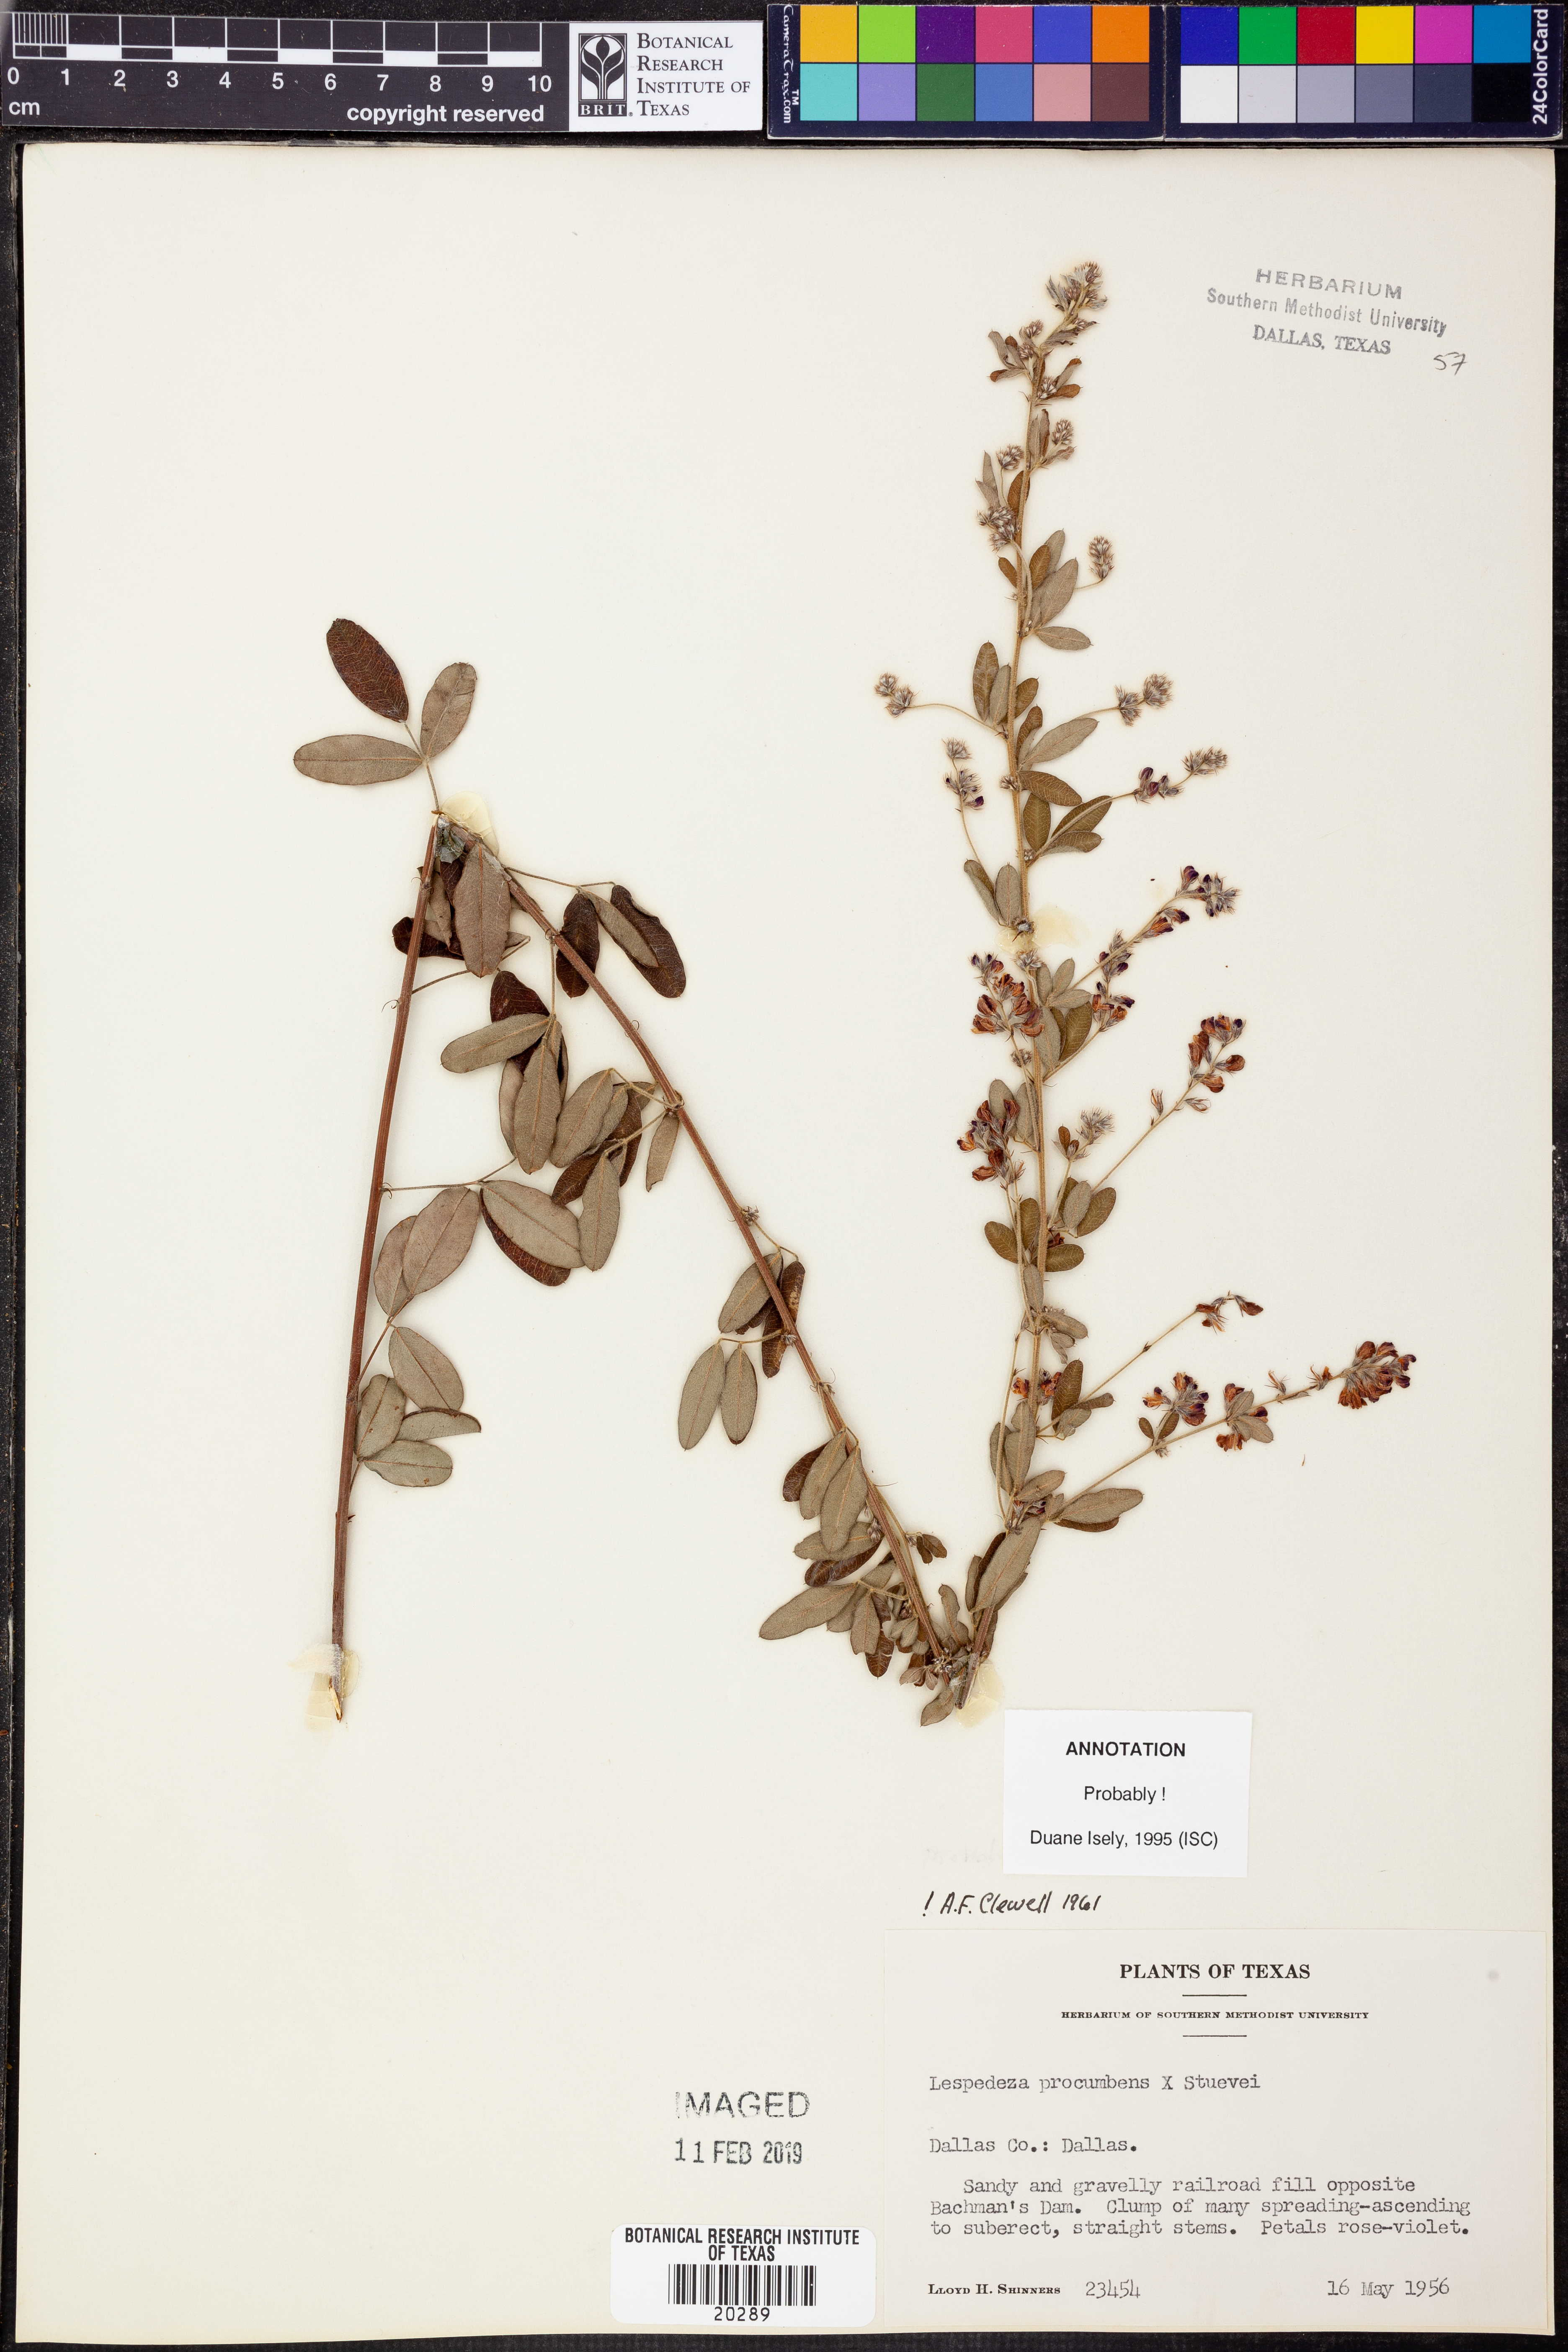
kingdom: Plantae
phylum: Tracheophyta
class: Magnoliopsida
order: Fabales
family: Fabaceae
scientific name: Fabaceae
